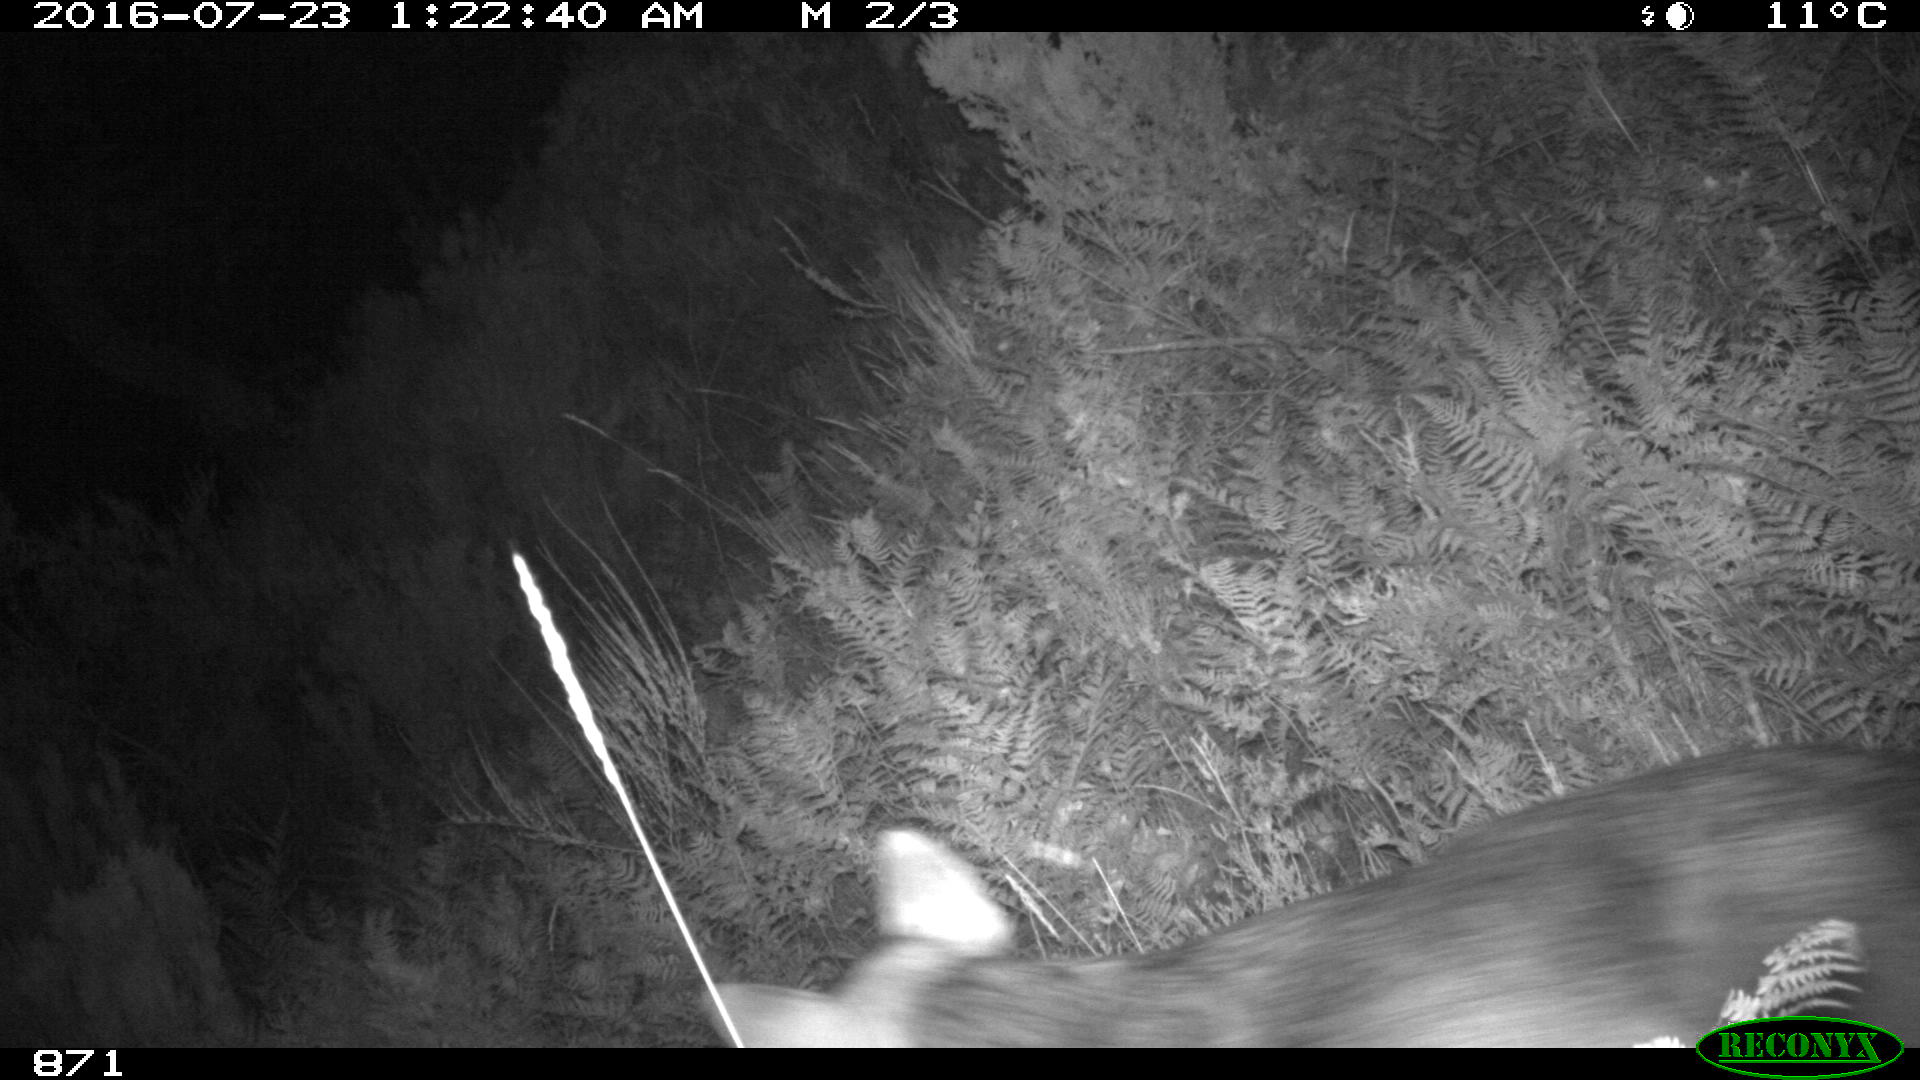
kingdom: Animalia
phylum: Chordata
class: Mammalia
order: Carnivora
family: Canidae
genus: Canis
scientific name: Canis lupus
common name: Gray wolf
